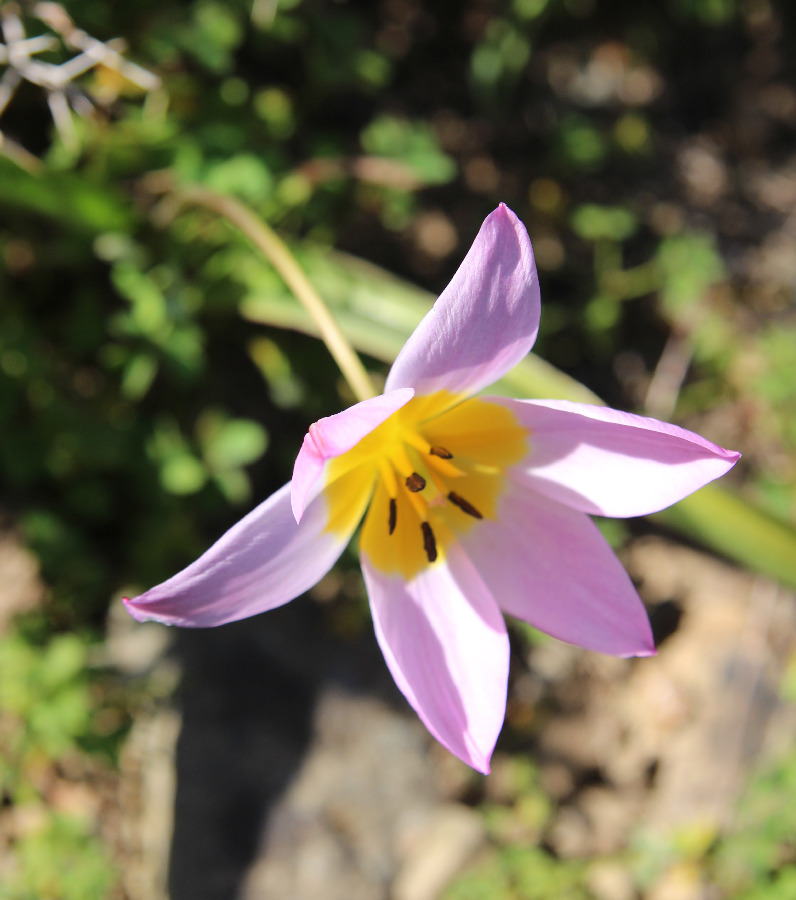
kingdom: Plantae
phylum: Tracheophyta
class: Liliopsida
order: Liliales
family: Liliaceae
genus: Tulipa
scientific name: Tulipa saxatilis
